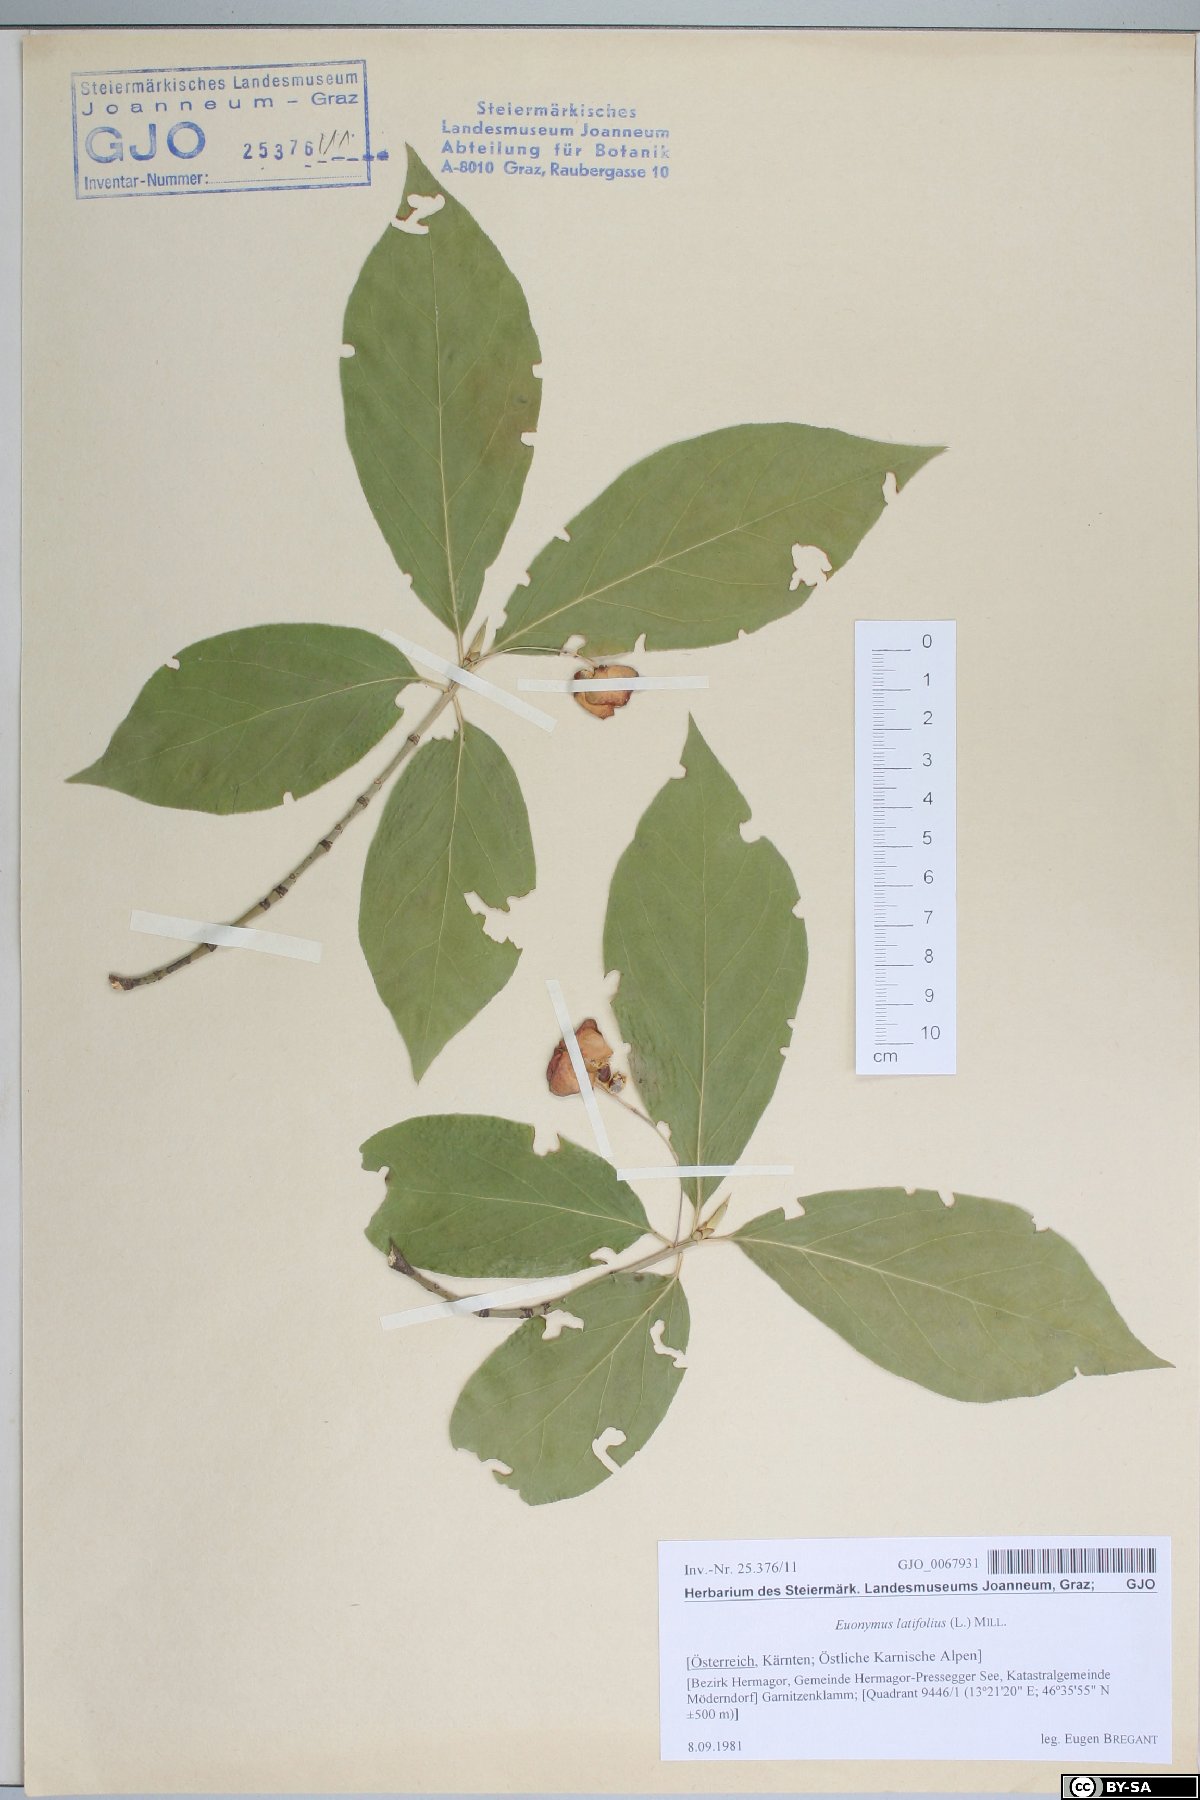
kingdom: Plantae
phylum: Tracheophyta
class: Magnoliopsida
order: Celastrales
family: Celastraceae
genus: Euonymus
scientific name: Euonymus latifolius
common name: Large-leaved spindle
